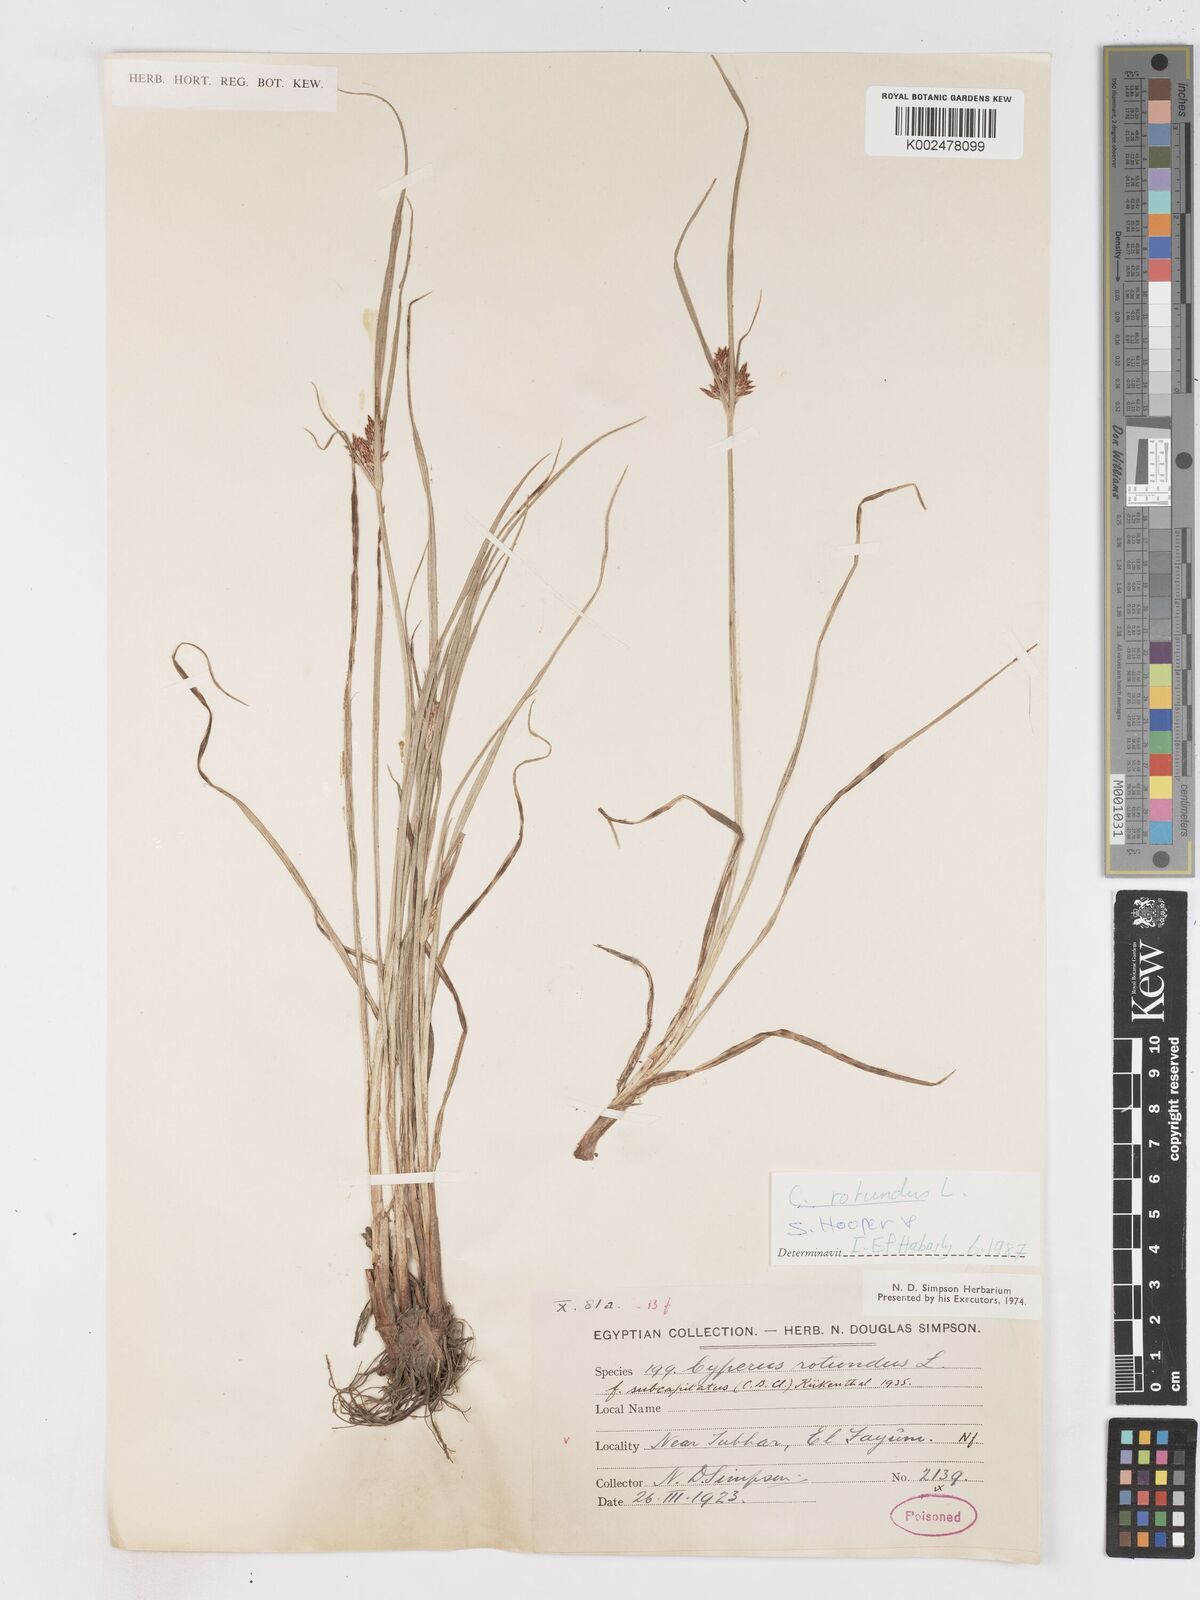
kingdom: Plantae
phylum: Tracheophyta
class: Liliopsida
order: Poales
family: Cyperaceae
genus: Cyperus
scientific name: Cyperus rotundus
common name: Nutgrass
